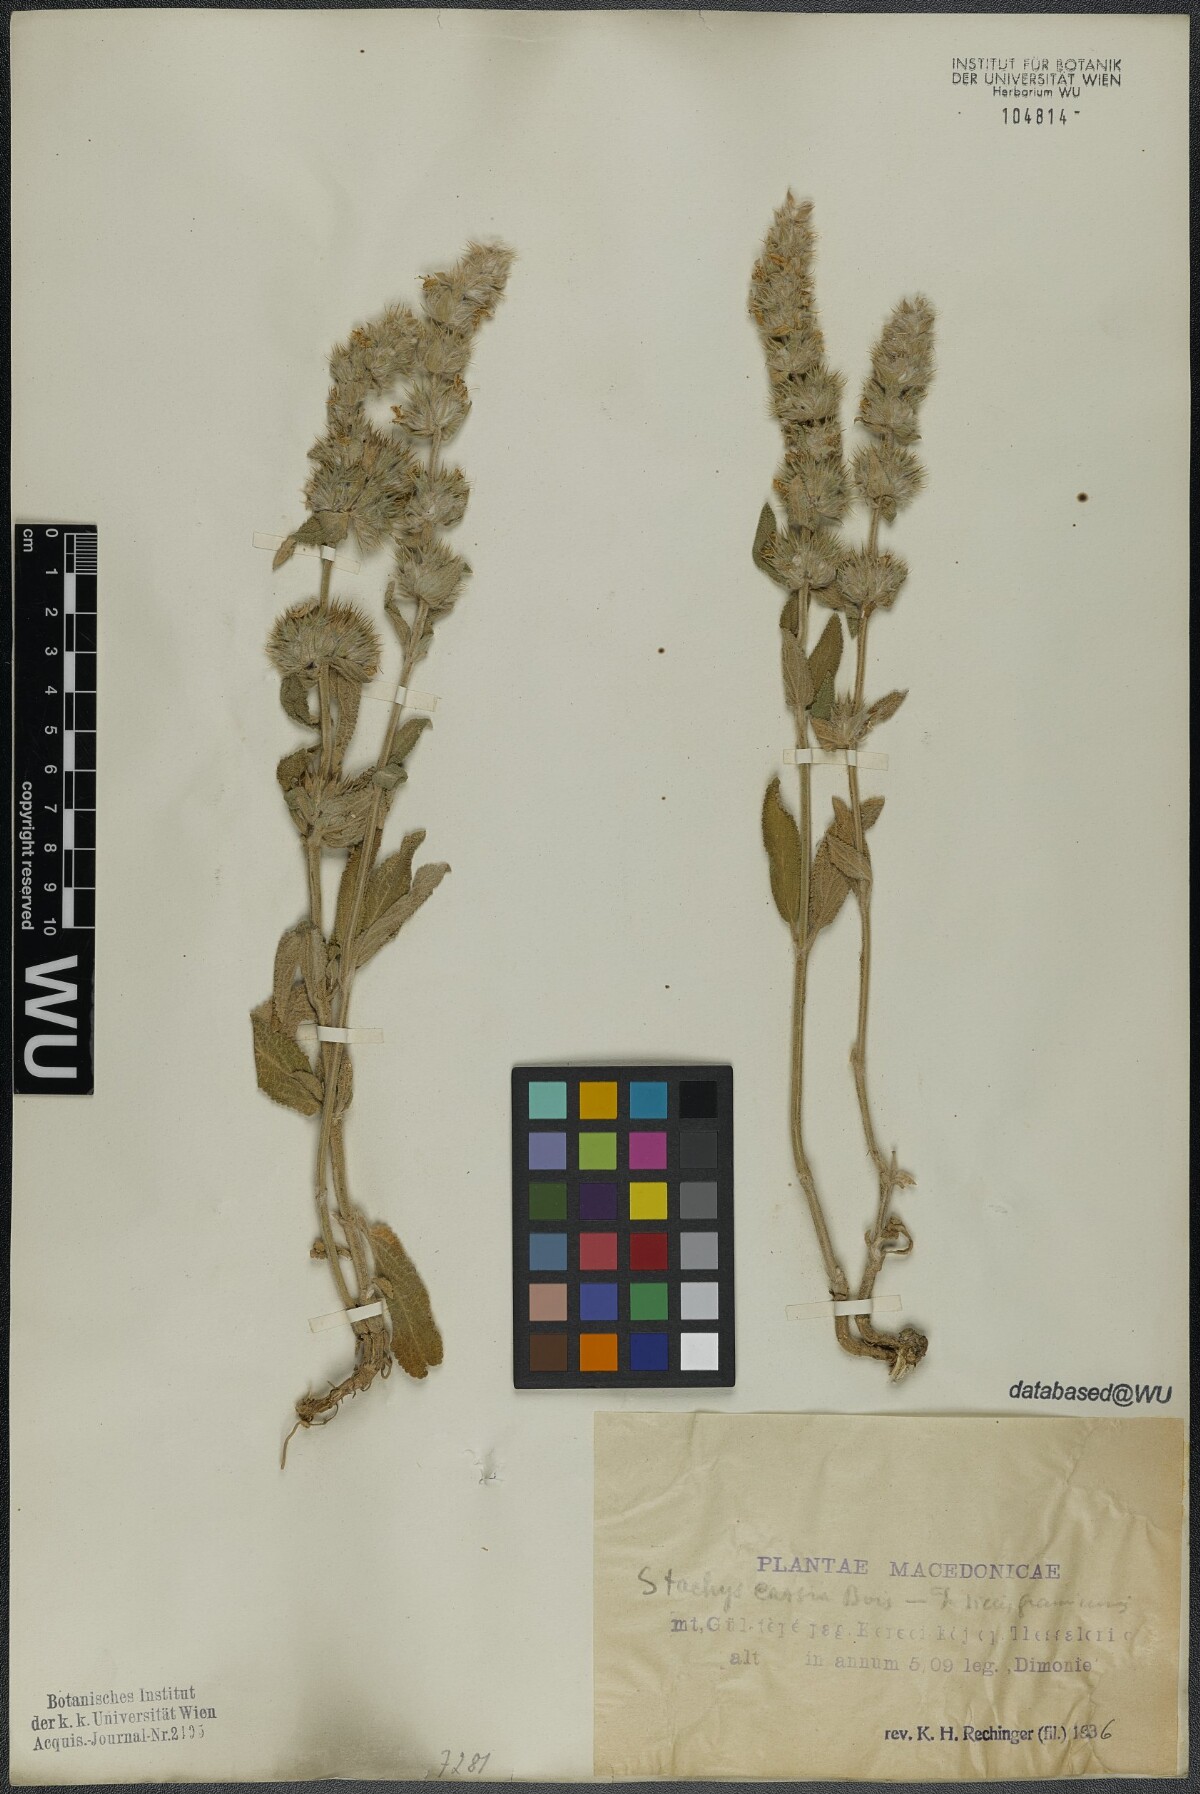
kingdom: Plantae
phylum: Tracheophyta
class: Magnoliopsida
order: Lamiales
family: Lamiaceae
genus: Stachys
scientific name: Stachys cretica
